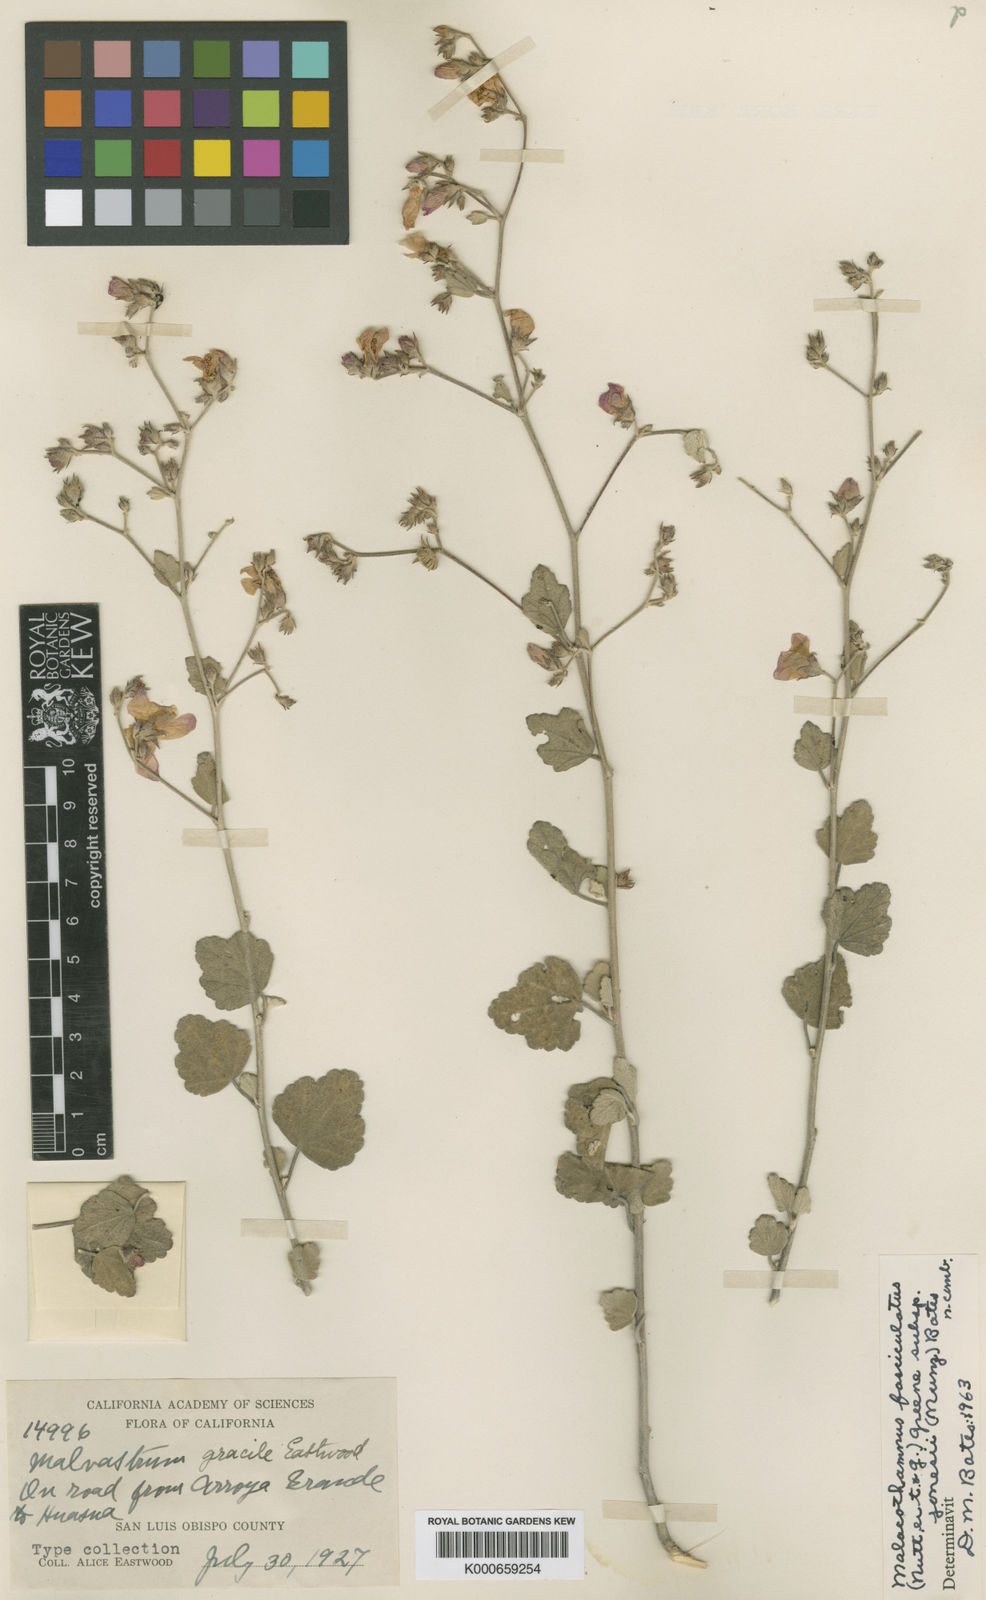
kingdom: Plantae
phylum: Tracheophyta
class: Magnoliopsida
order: Malvales
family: Malvaceae
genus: Malacothamnus
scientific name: Malacothamnus fasciculatus
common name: Sant cruz island bush-mallow
